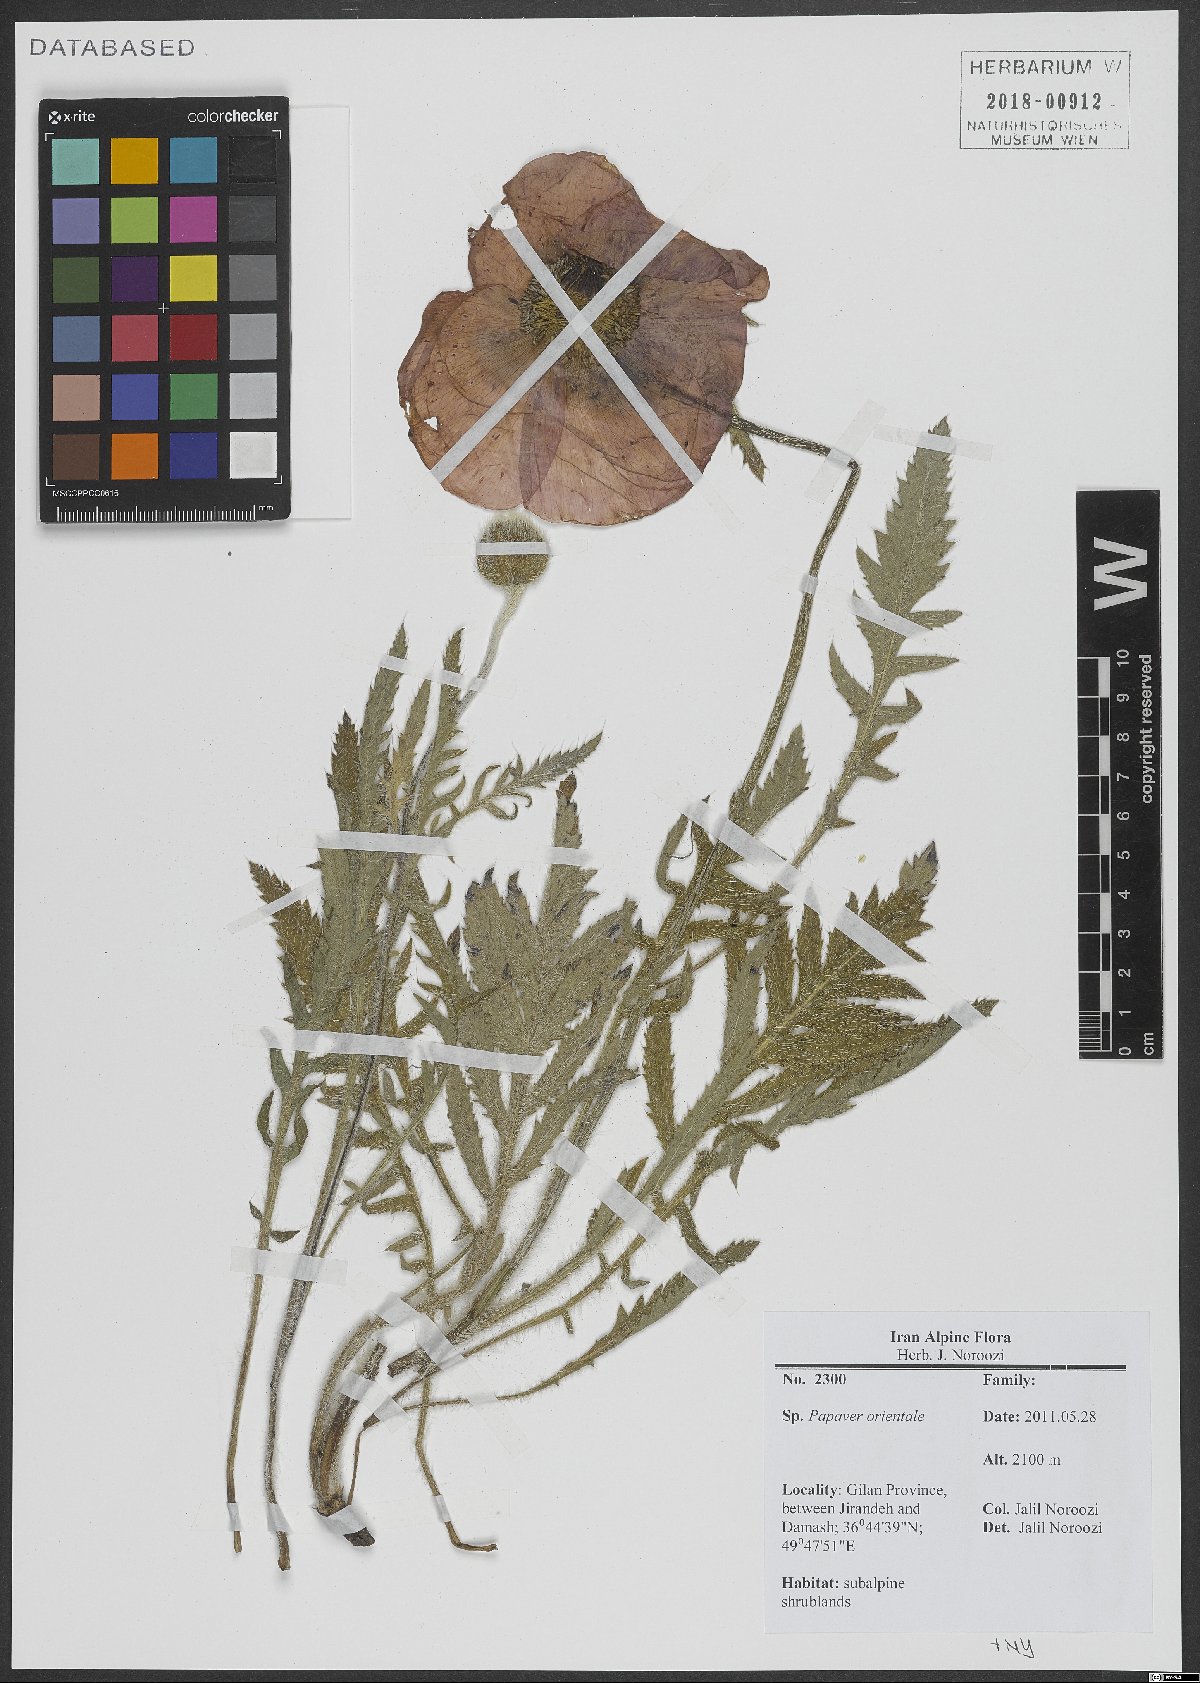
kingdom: Plantae
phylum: Tracheophyta
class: Magnoliopsida
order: Ranunculales
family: Papaveraceae
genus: Papaver
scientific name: Papaver orientale
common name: Oriental poppy
